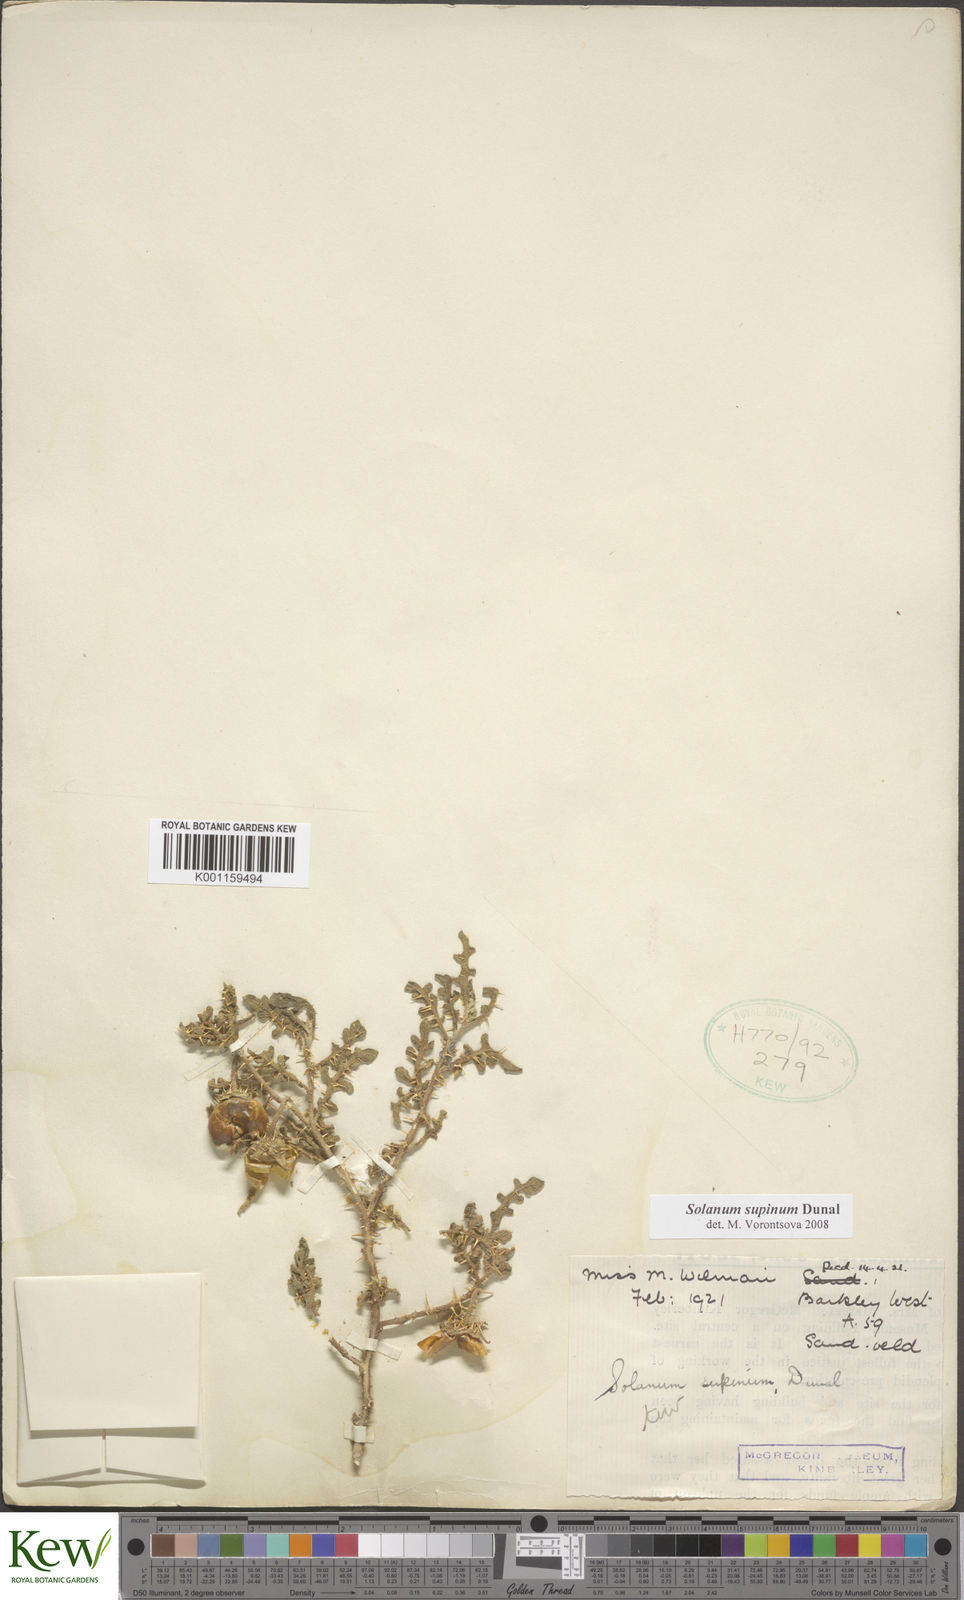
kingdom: Plantae
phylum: Tracheophyta
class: Magnoliopsida
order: Solanales
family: Solanaceae
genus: Solanum
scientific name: Solanum supinum
